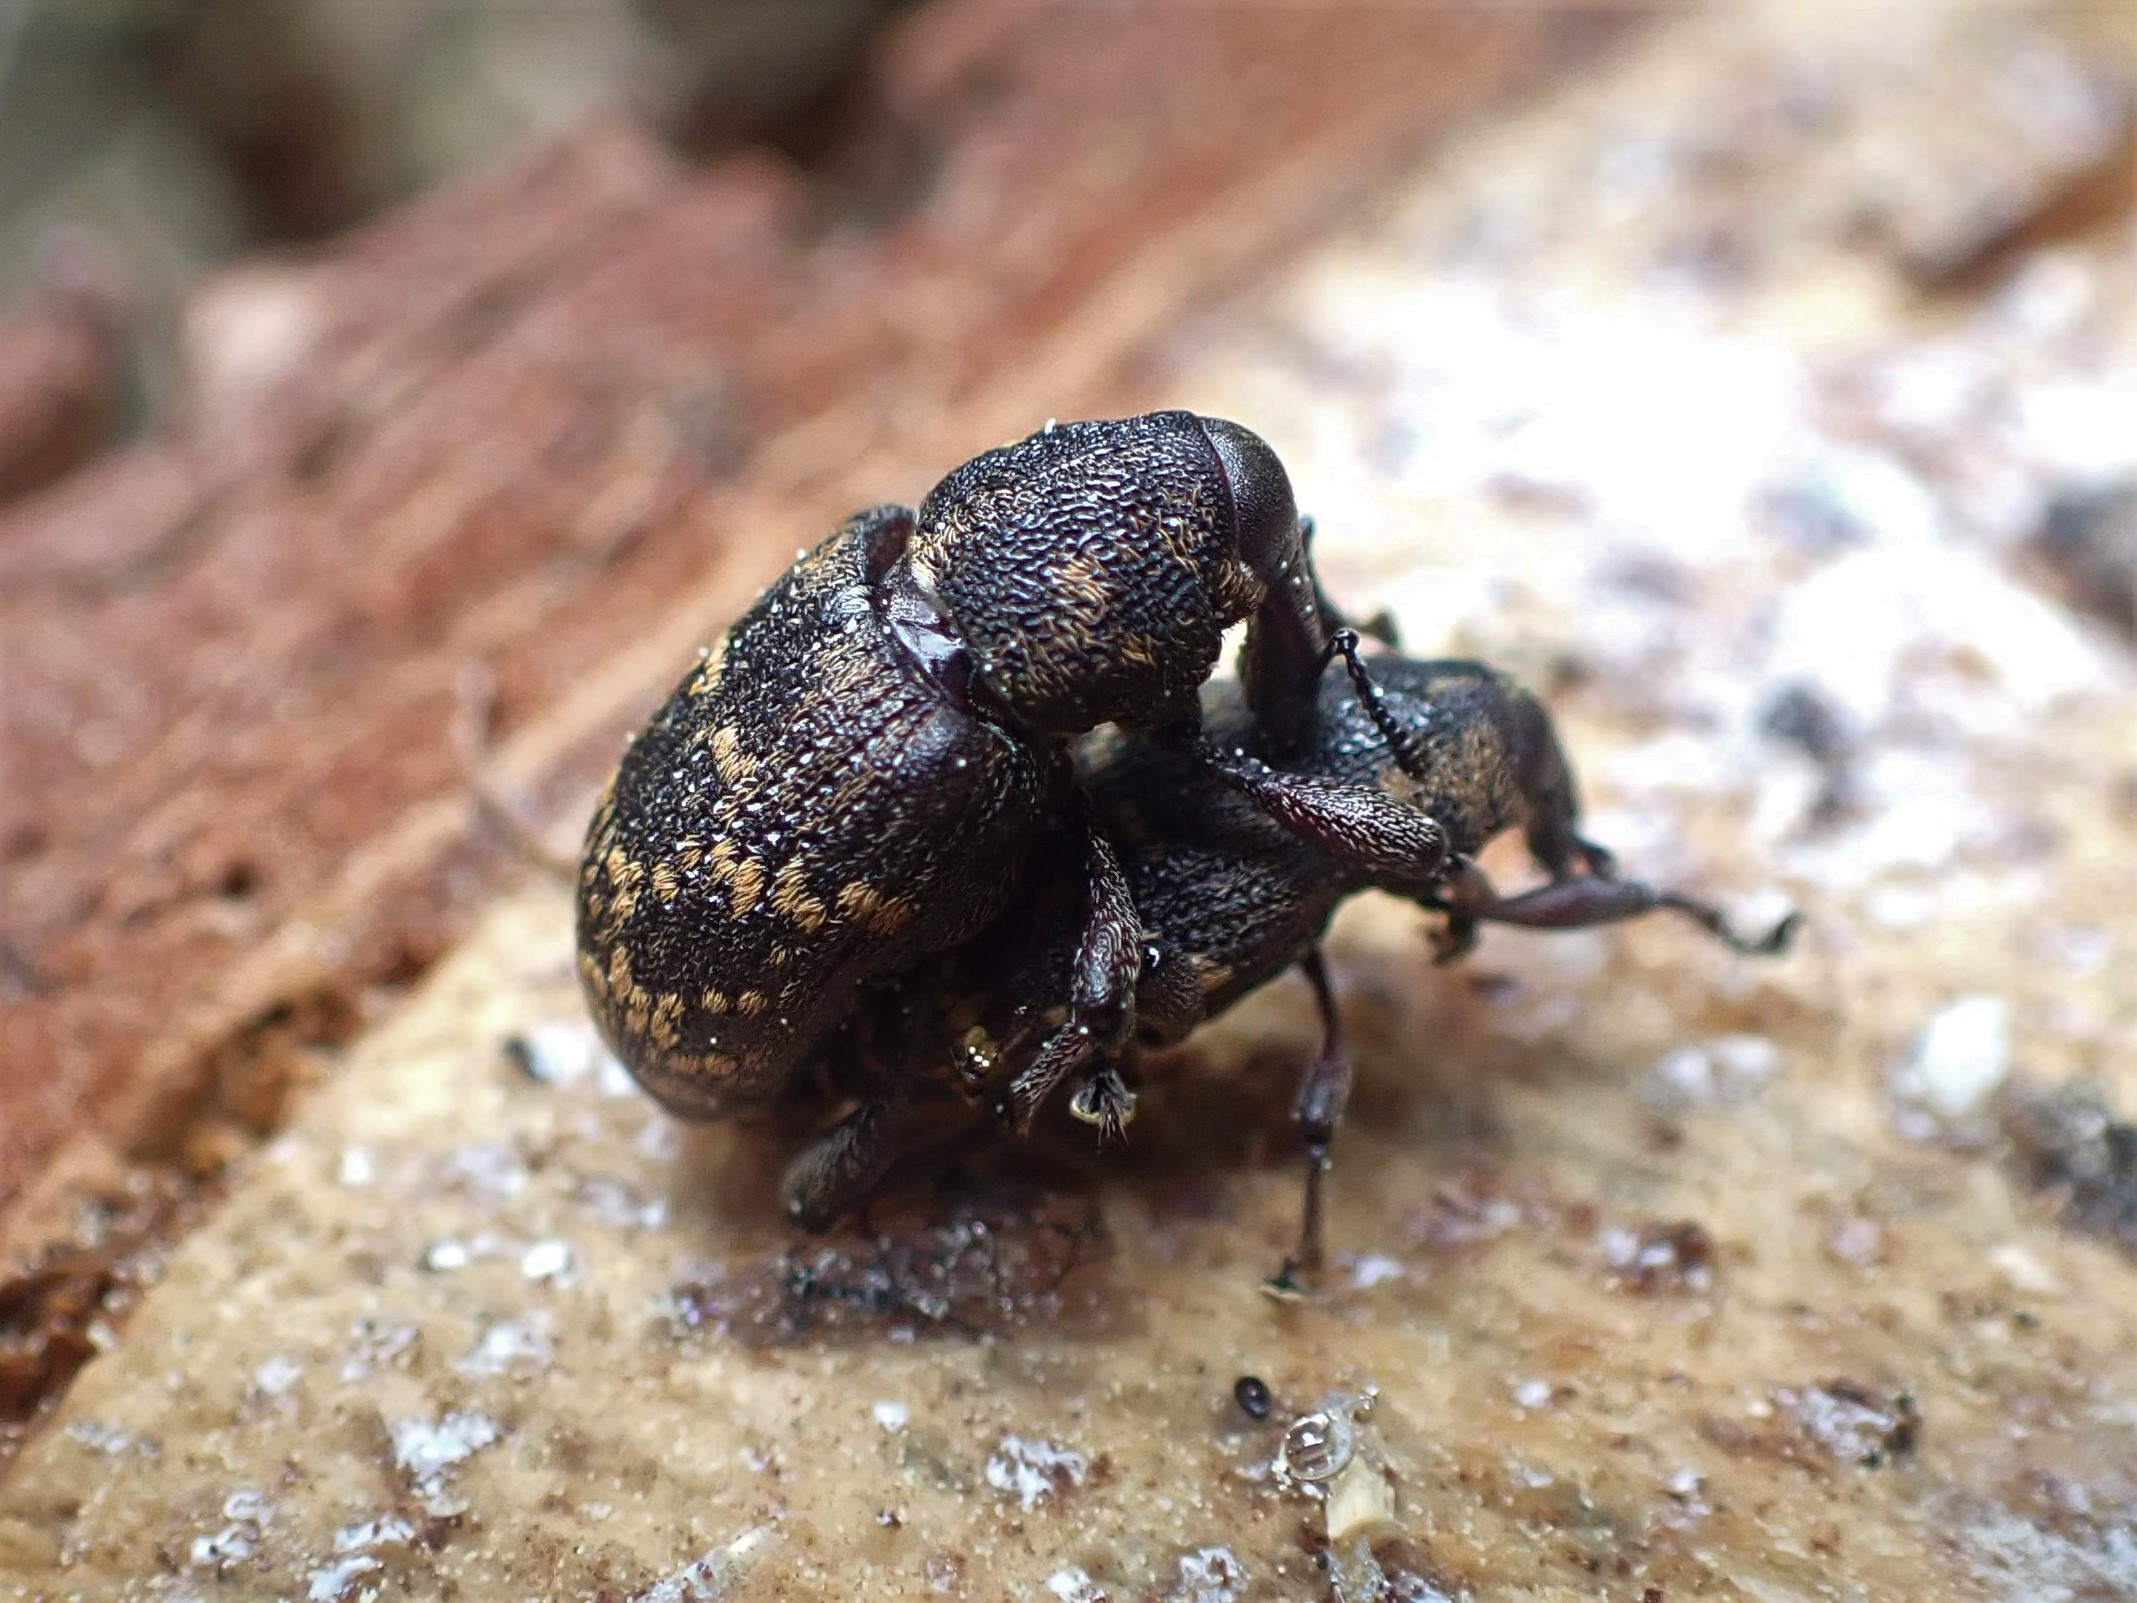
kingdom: Animalia
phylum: Arthropoda
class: Insecta
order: Coleoptera
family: Curculionidae
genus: Hylobius
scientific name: Hylobius abietis
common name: Stor nåletræsnudebille
